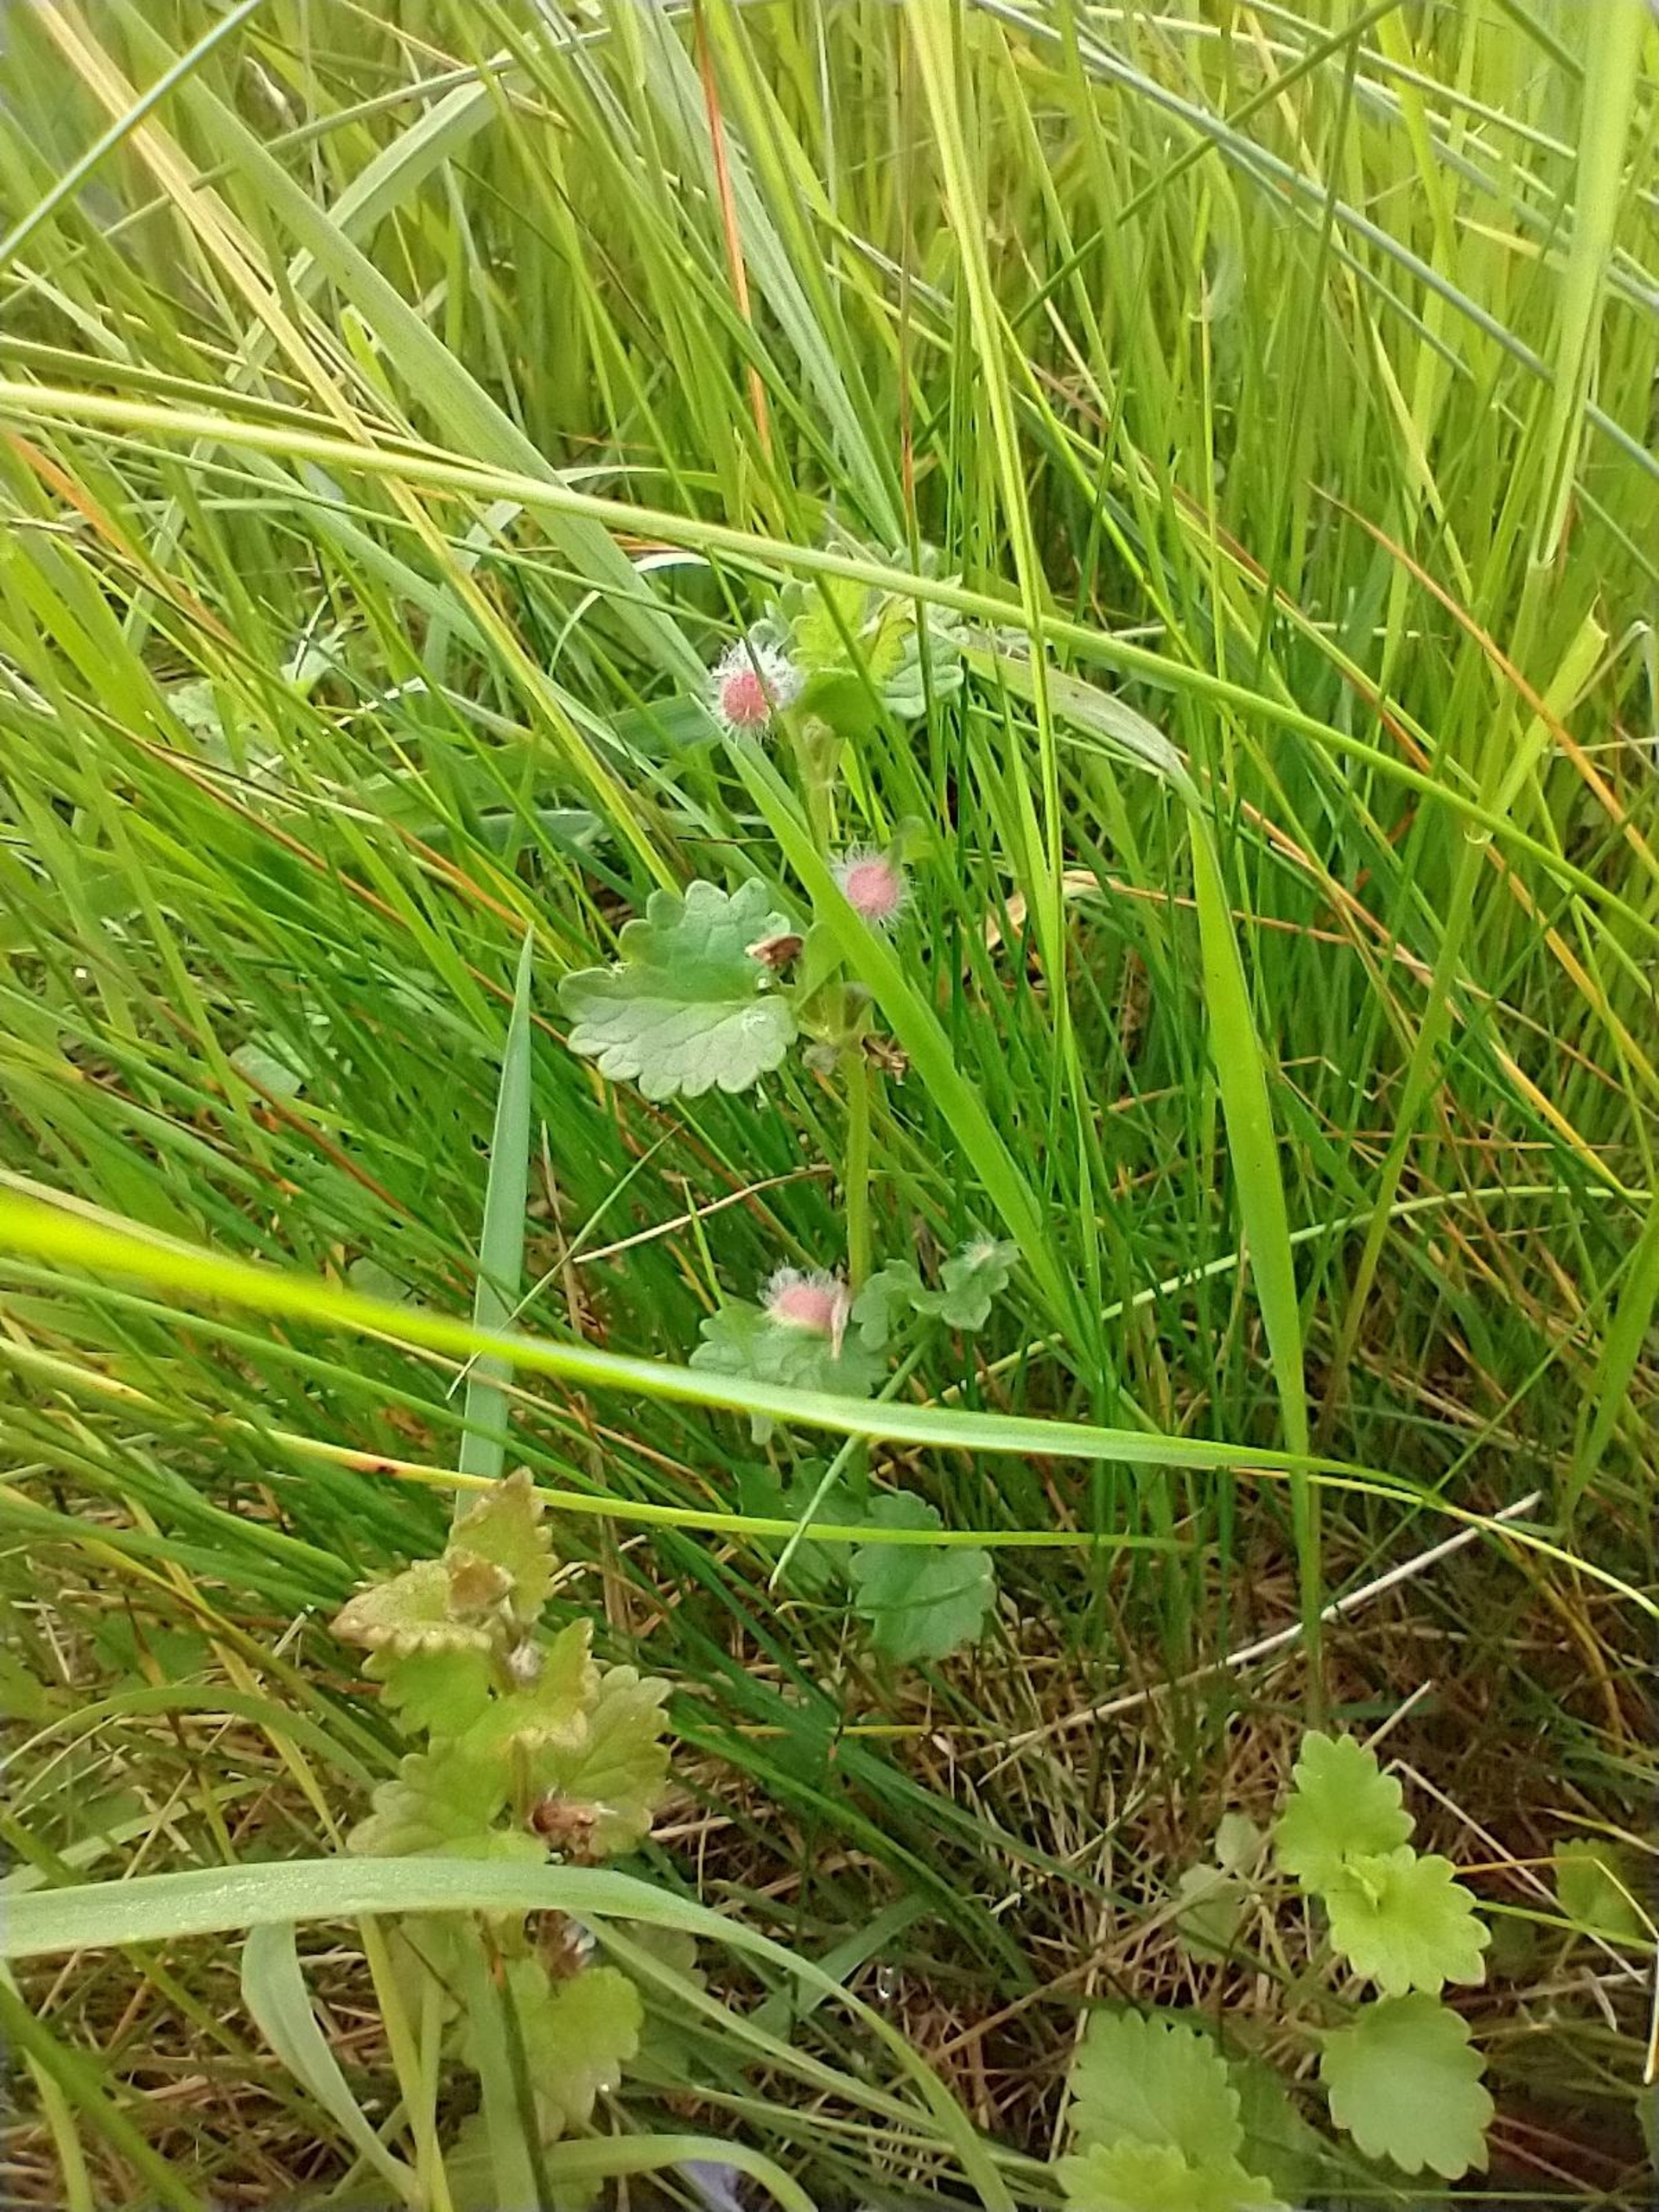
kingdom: Animalia
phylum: Arthropoda
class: Insecta
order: Hymenoptera
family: Cynipidae
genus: Liposthenes
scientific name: Liposthenes glechomae
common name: Korsknapgalhveps
